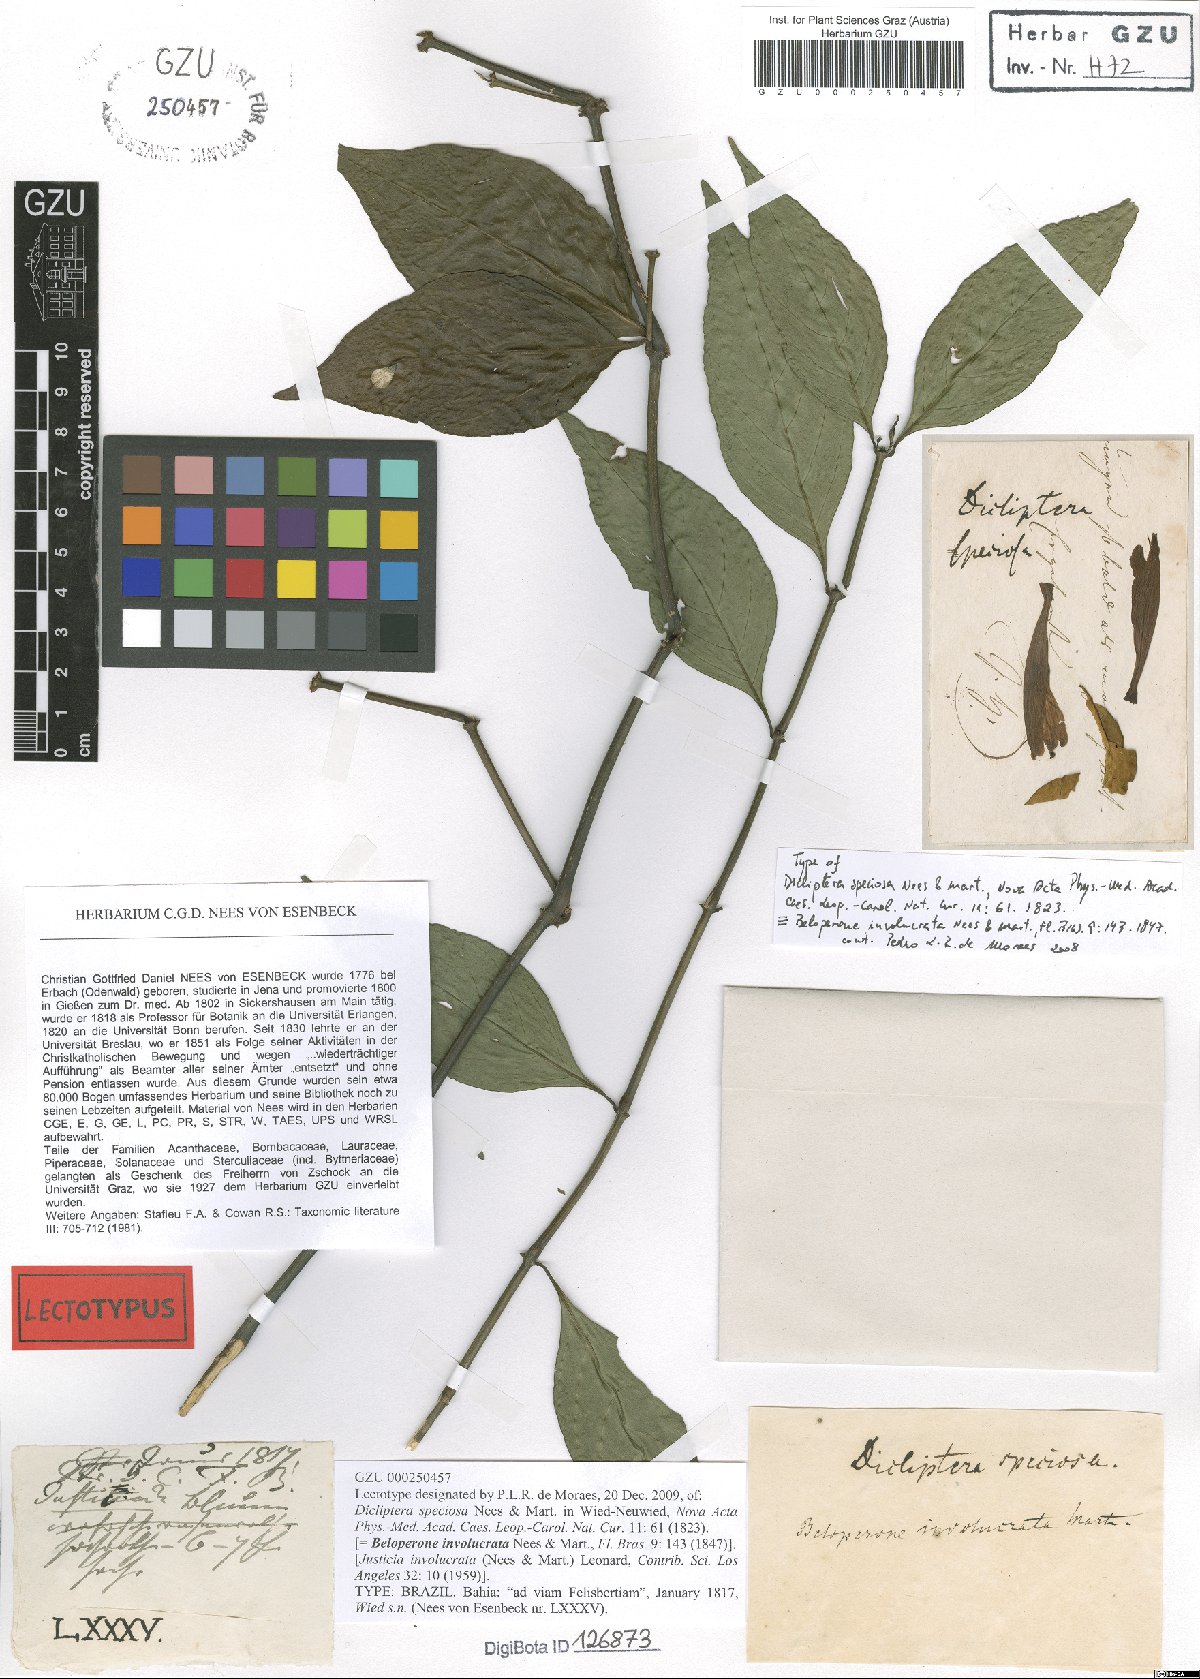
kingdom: Plantae
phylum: Tracheophyta
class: Magnoliopsida
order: Lamiales
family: Acanthaceae
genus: Justicia
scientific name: Justicia involucrata
